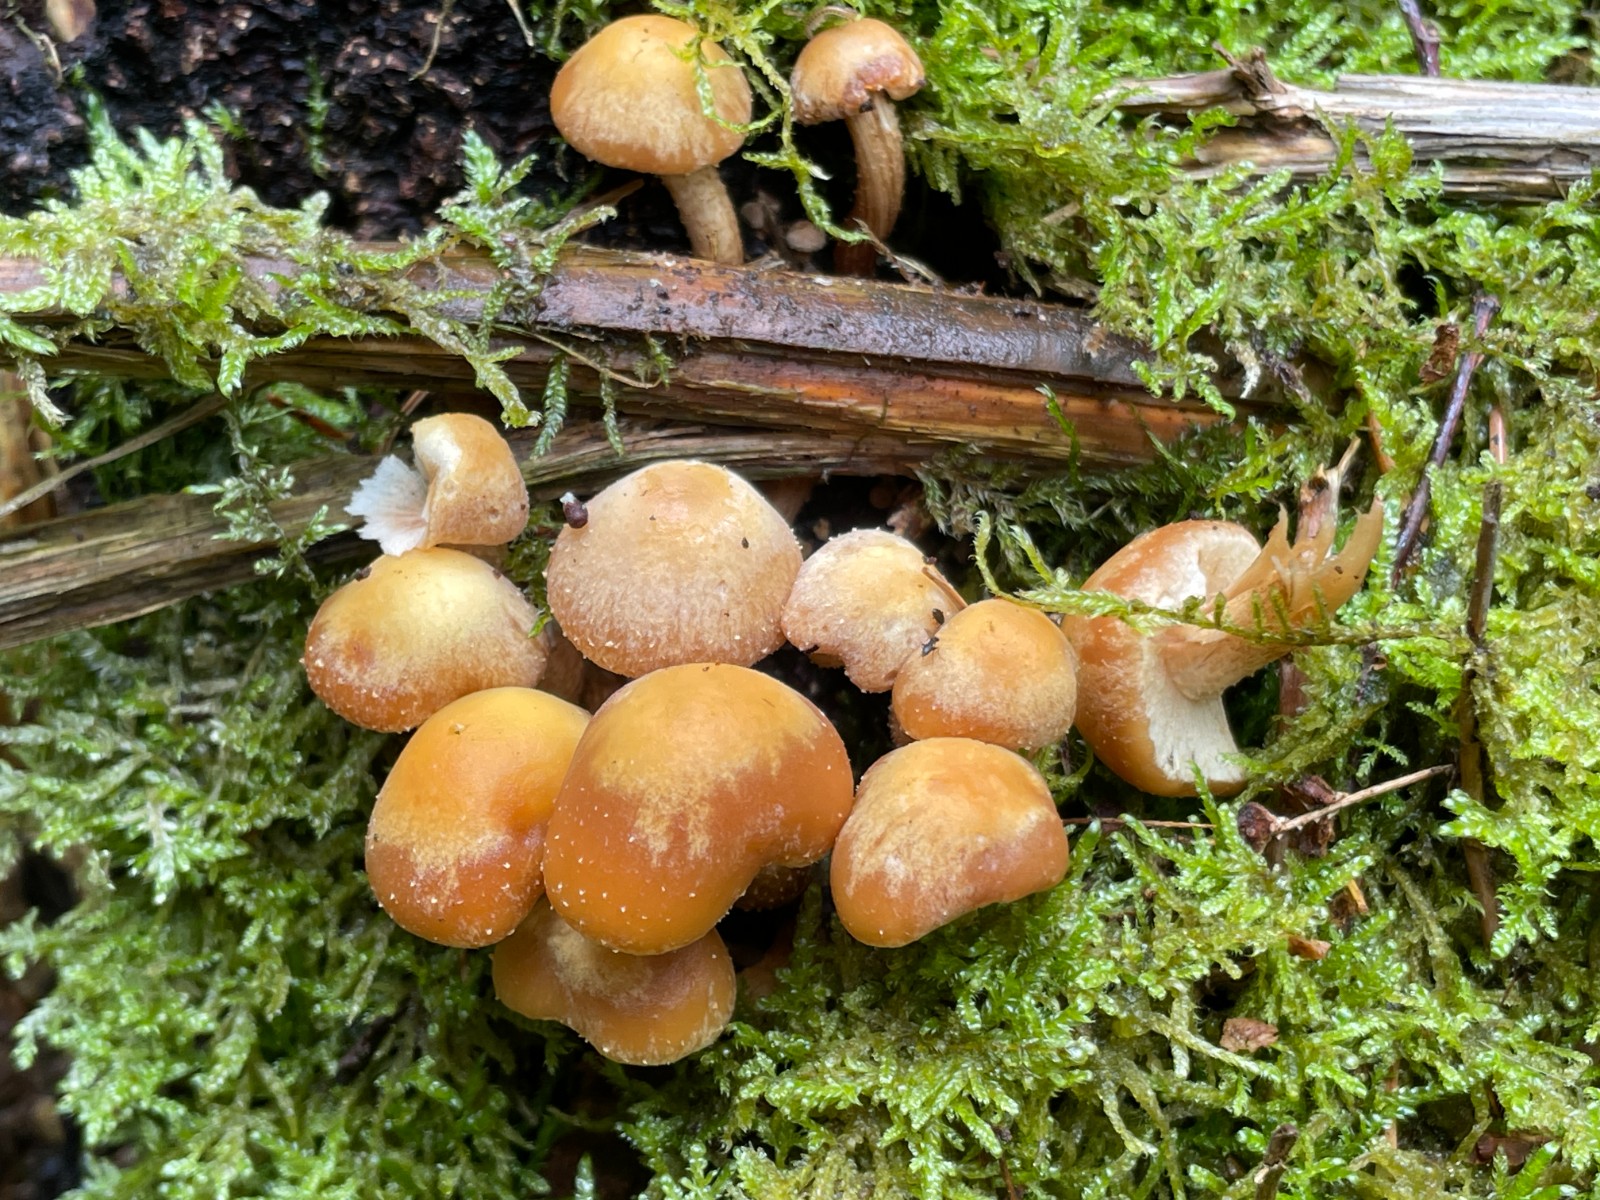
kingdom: Fungi
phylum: Basidiomycota
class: Agaricomycetes
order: Agaricales
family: Strophariaceae
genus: Kuehneromyces
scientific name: Kuehneromyces mutabilis
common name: foranderlig skælhat
